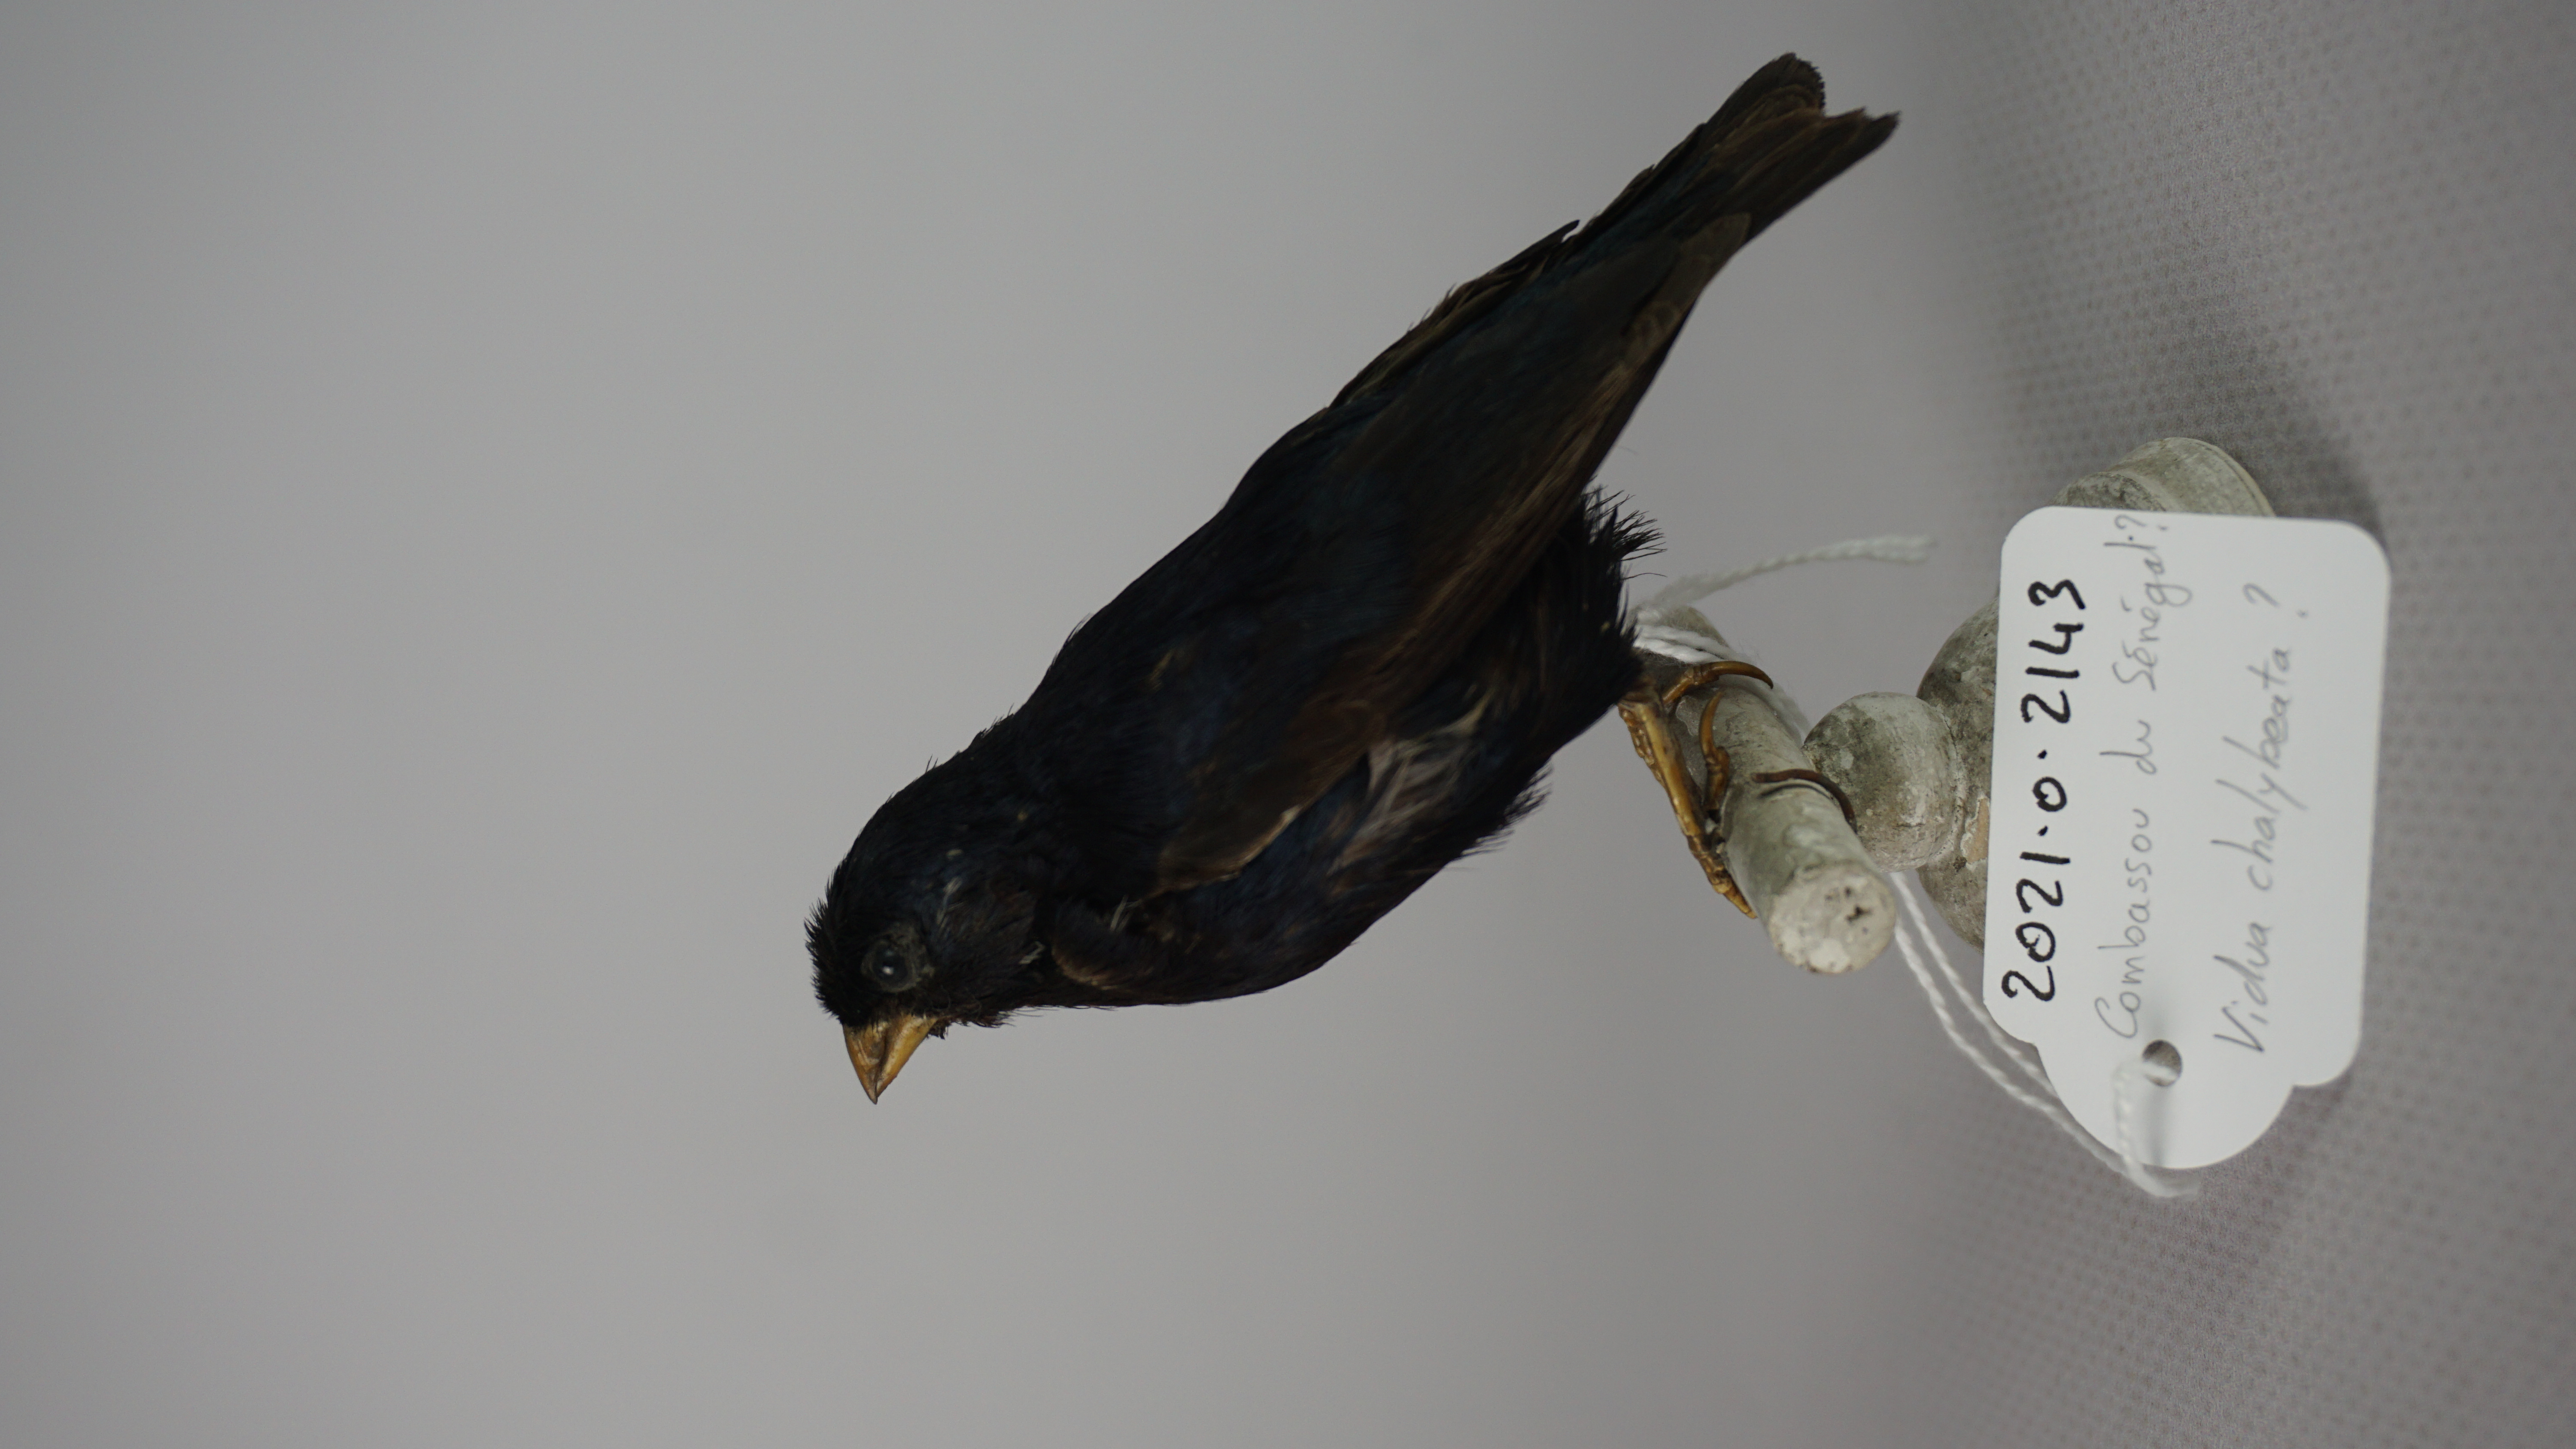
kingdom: Animalia
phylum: Chordata
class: Aves
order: Passeriformes
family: Viduidae
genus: Vidua
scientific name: Vidua chalybeata
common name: Village indigobird
